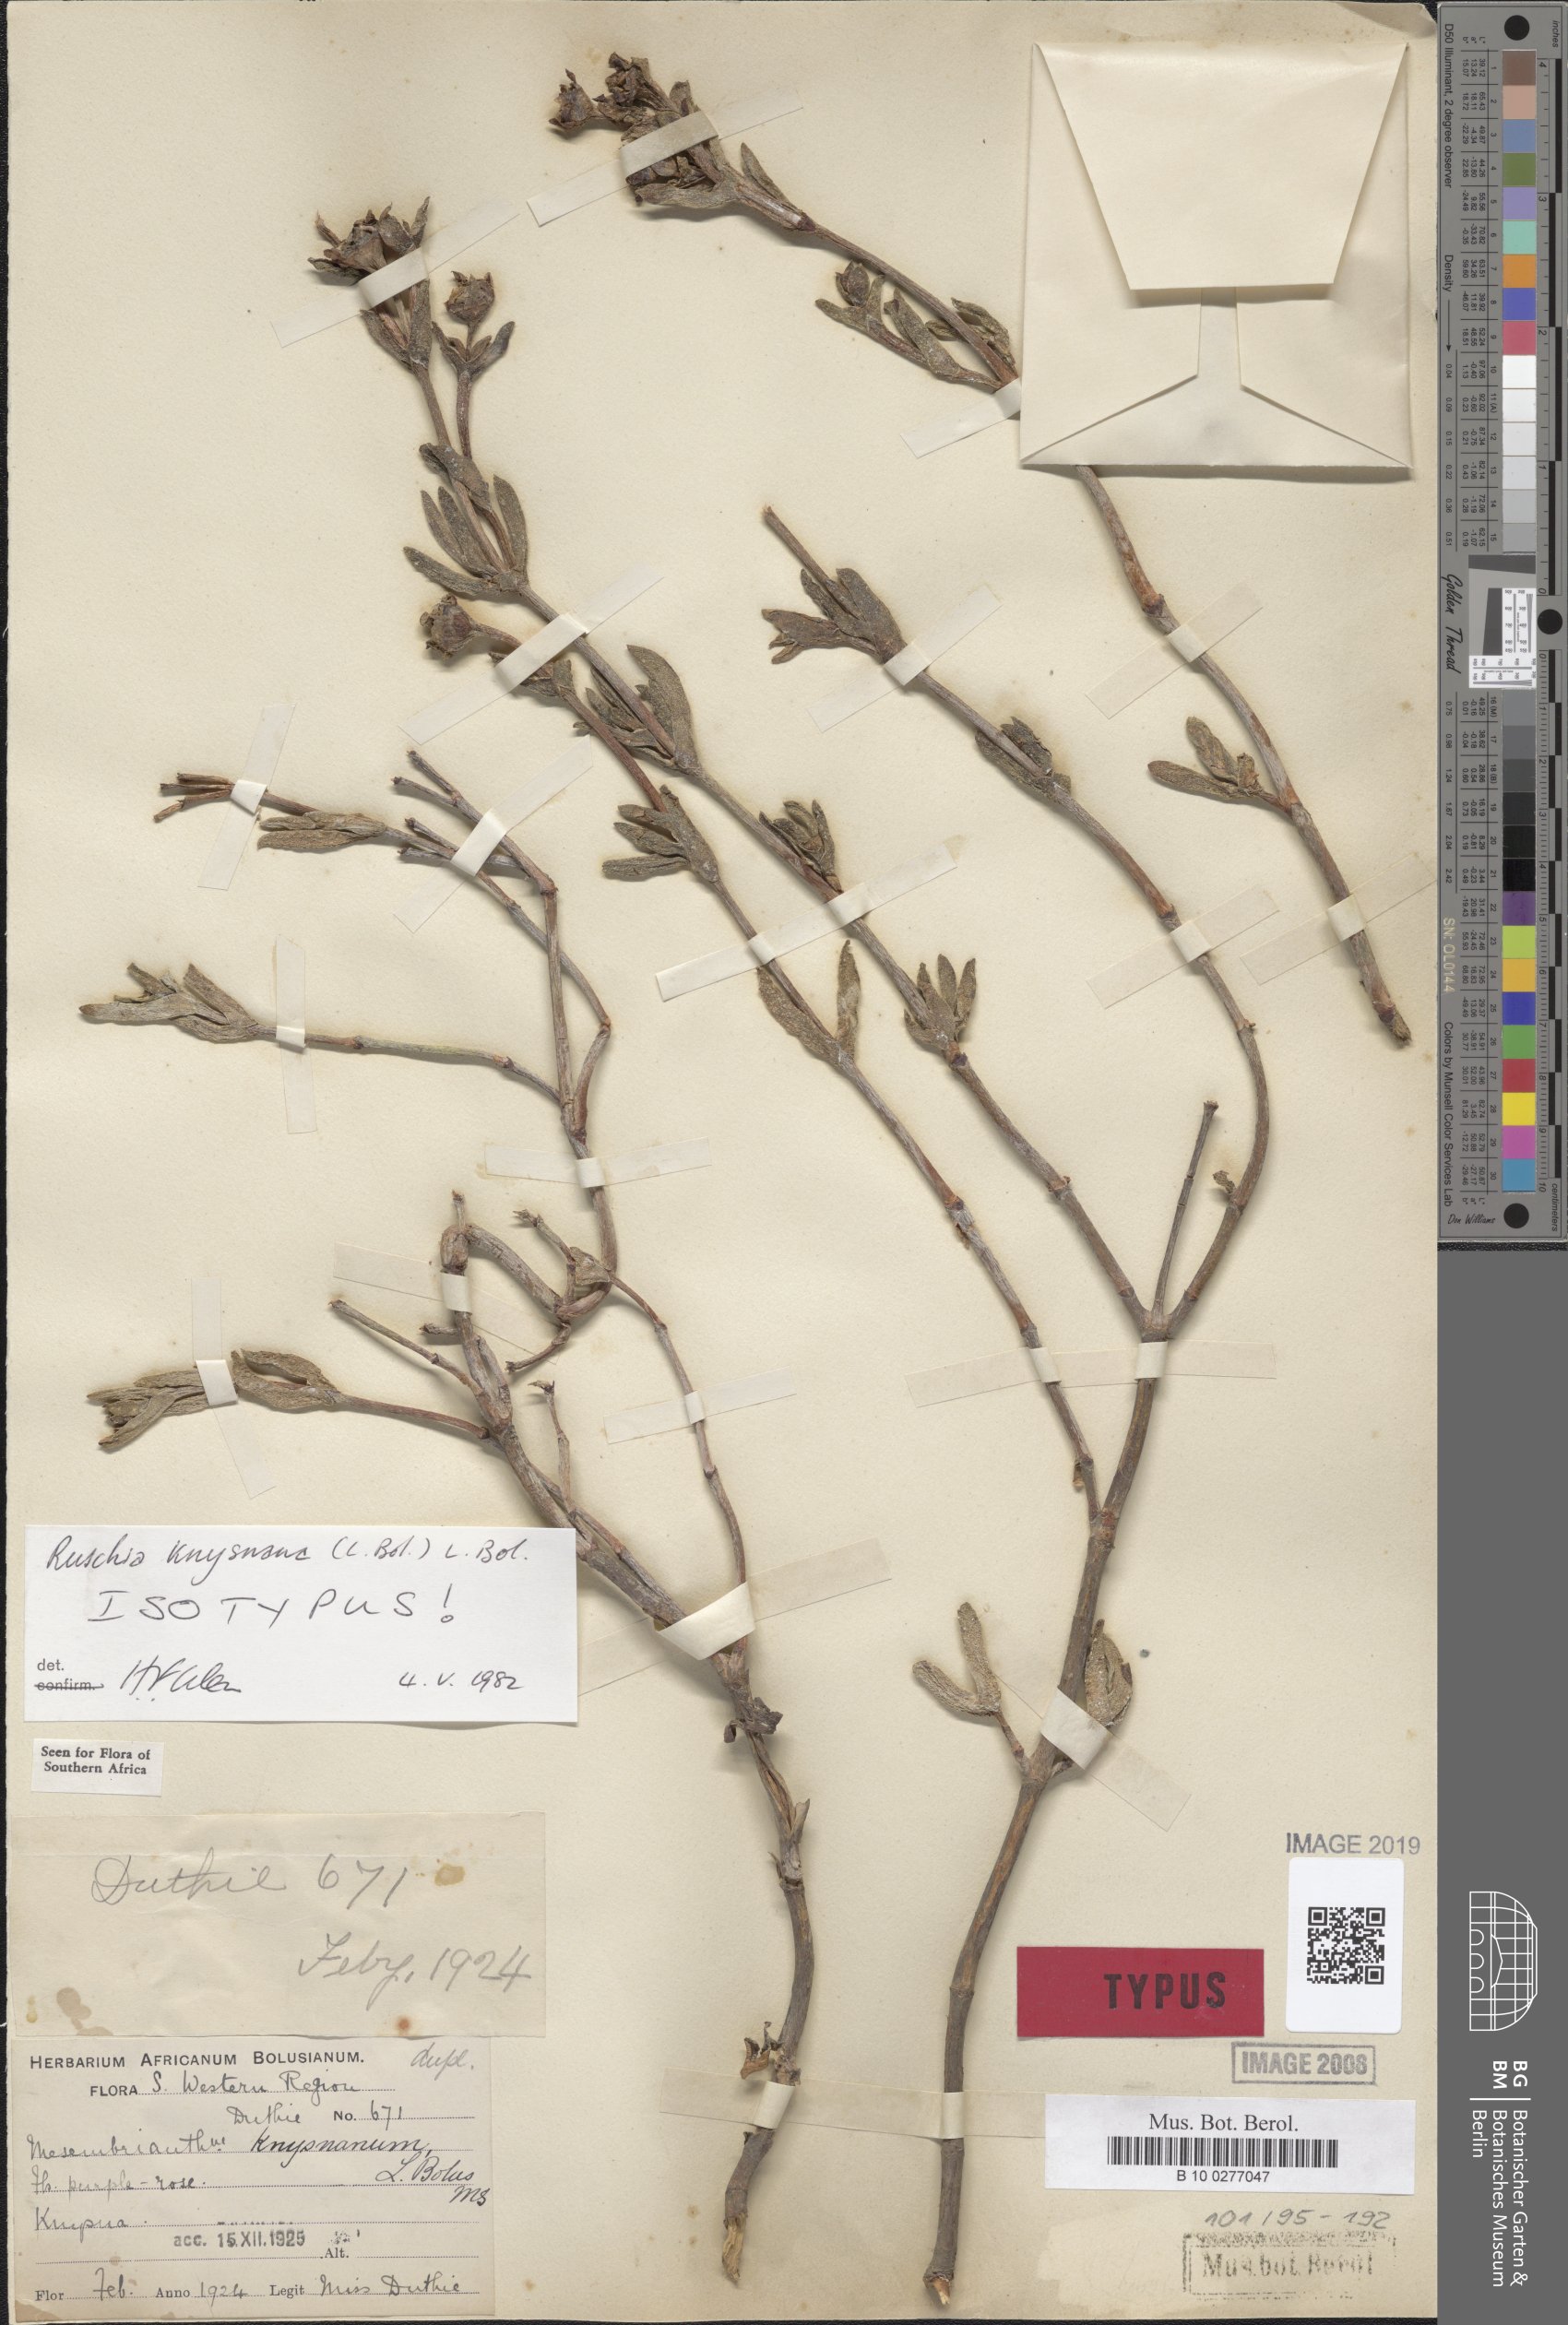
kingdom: Plantae
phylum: Tracheophyta
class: Magnoliopsida
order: Caryophyllales
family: Aizoaceae
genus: Esterhuysenia
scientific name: Esterhuysenia knysnana
